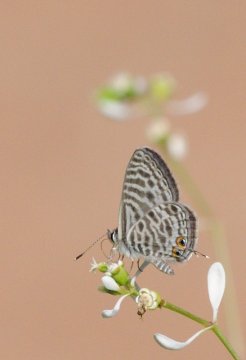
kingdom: Animalia
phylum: Arthropoda
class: Insecta
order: Lepidoptera
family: Lycaenidae
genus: Leptotes
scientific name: Leptotes pirithous
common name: Lang's Short-tailed Blue
